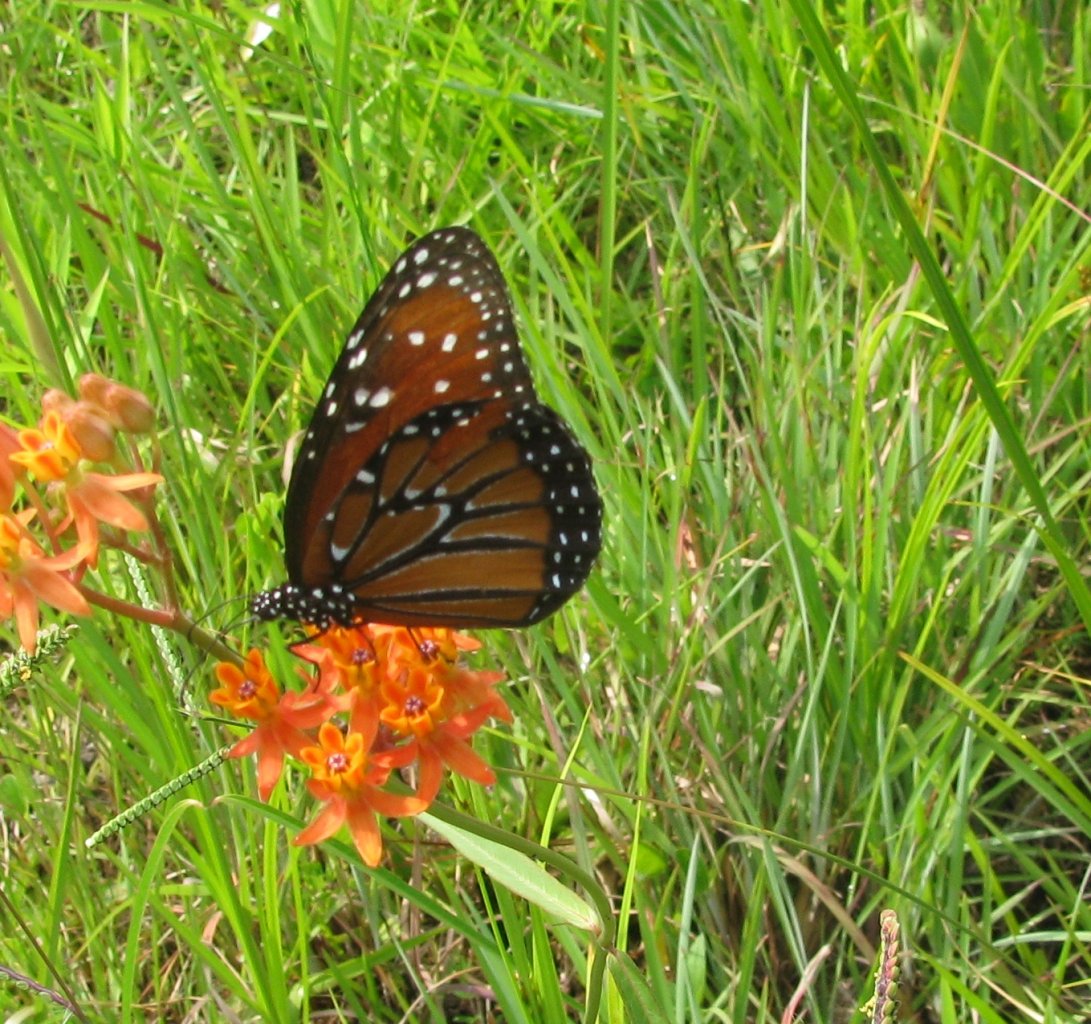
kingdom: Animalia
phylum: Arthropoda
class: Insecta
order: Lepidoptera
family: Nymphalidae
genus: Danaus
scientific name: Danaus gilippus
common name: Queen
